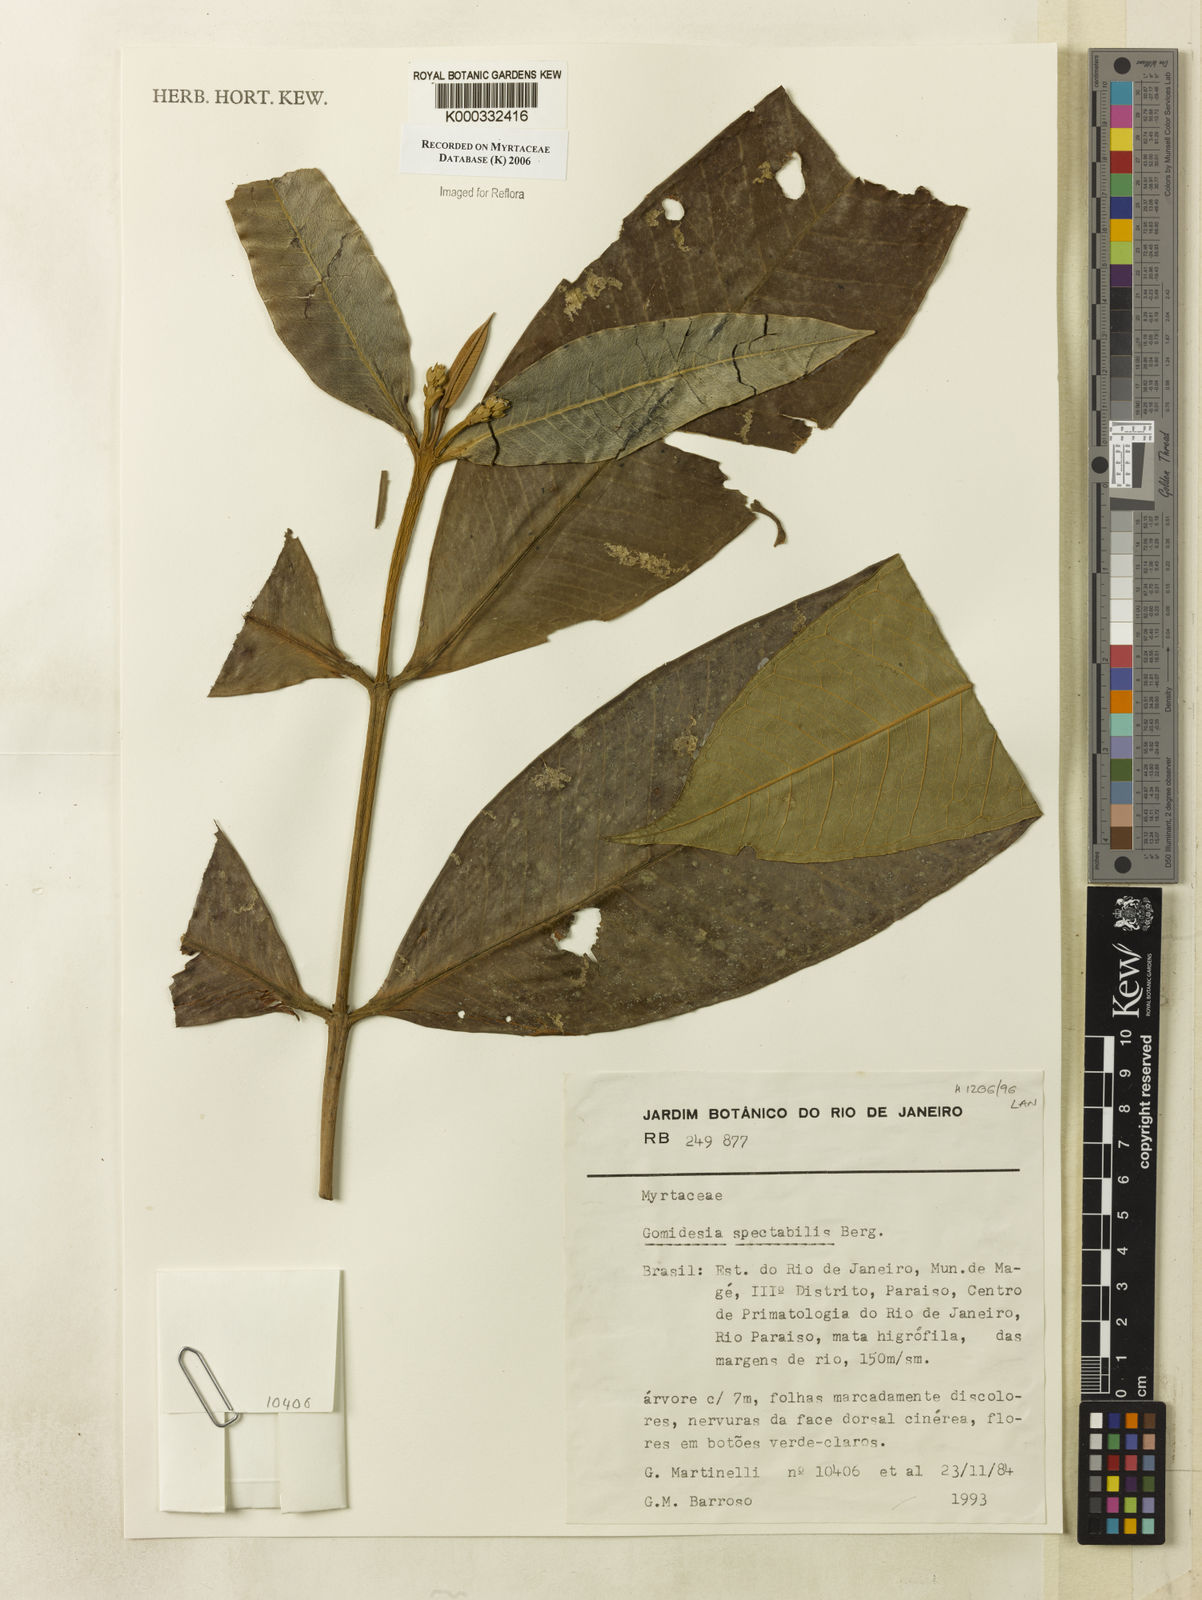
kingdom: Plantae
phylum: Tracheophyta
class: Magnoliopsida
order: Myrtales
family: Myrtaceae
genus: Myrcia
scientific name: Myrcia spectabilis
